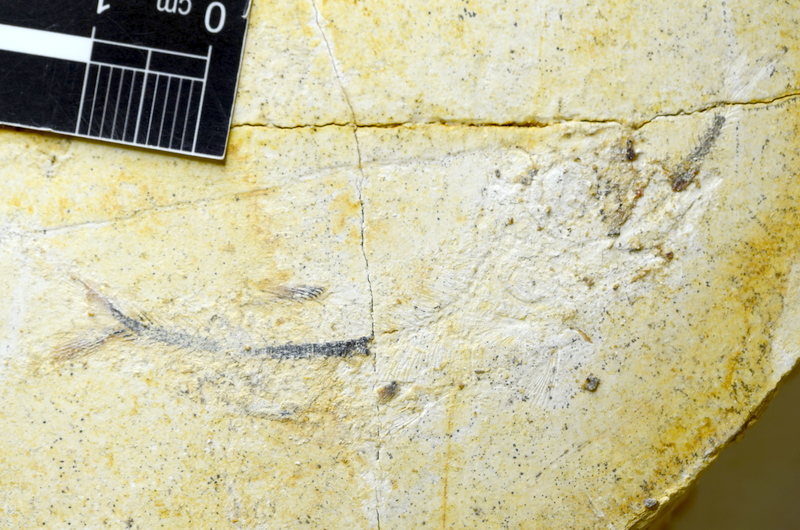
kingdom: Animalia
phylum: Chordata
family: Ascalaboidae
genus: Ebertichthys
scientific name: Ebertichthys ettlingensis
